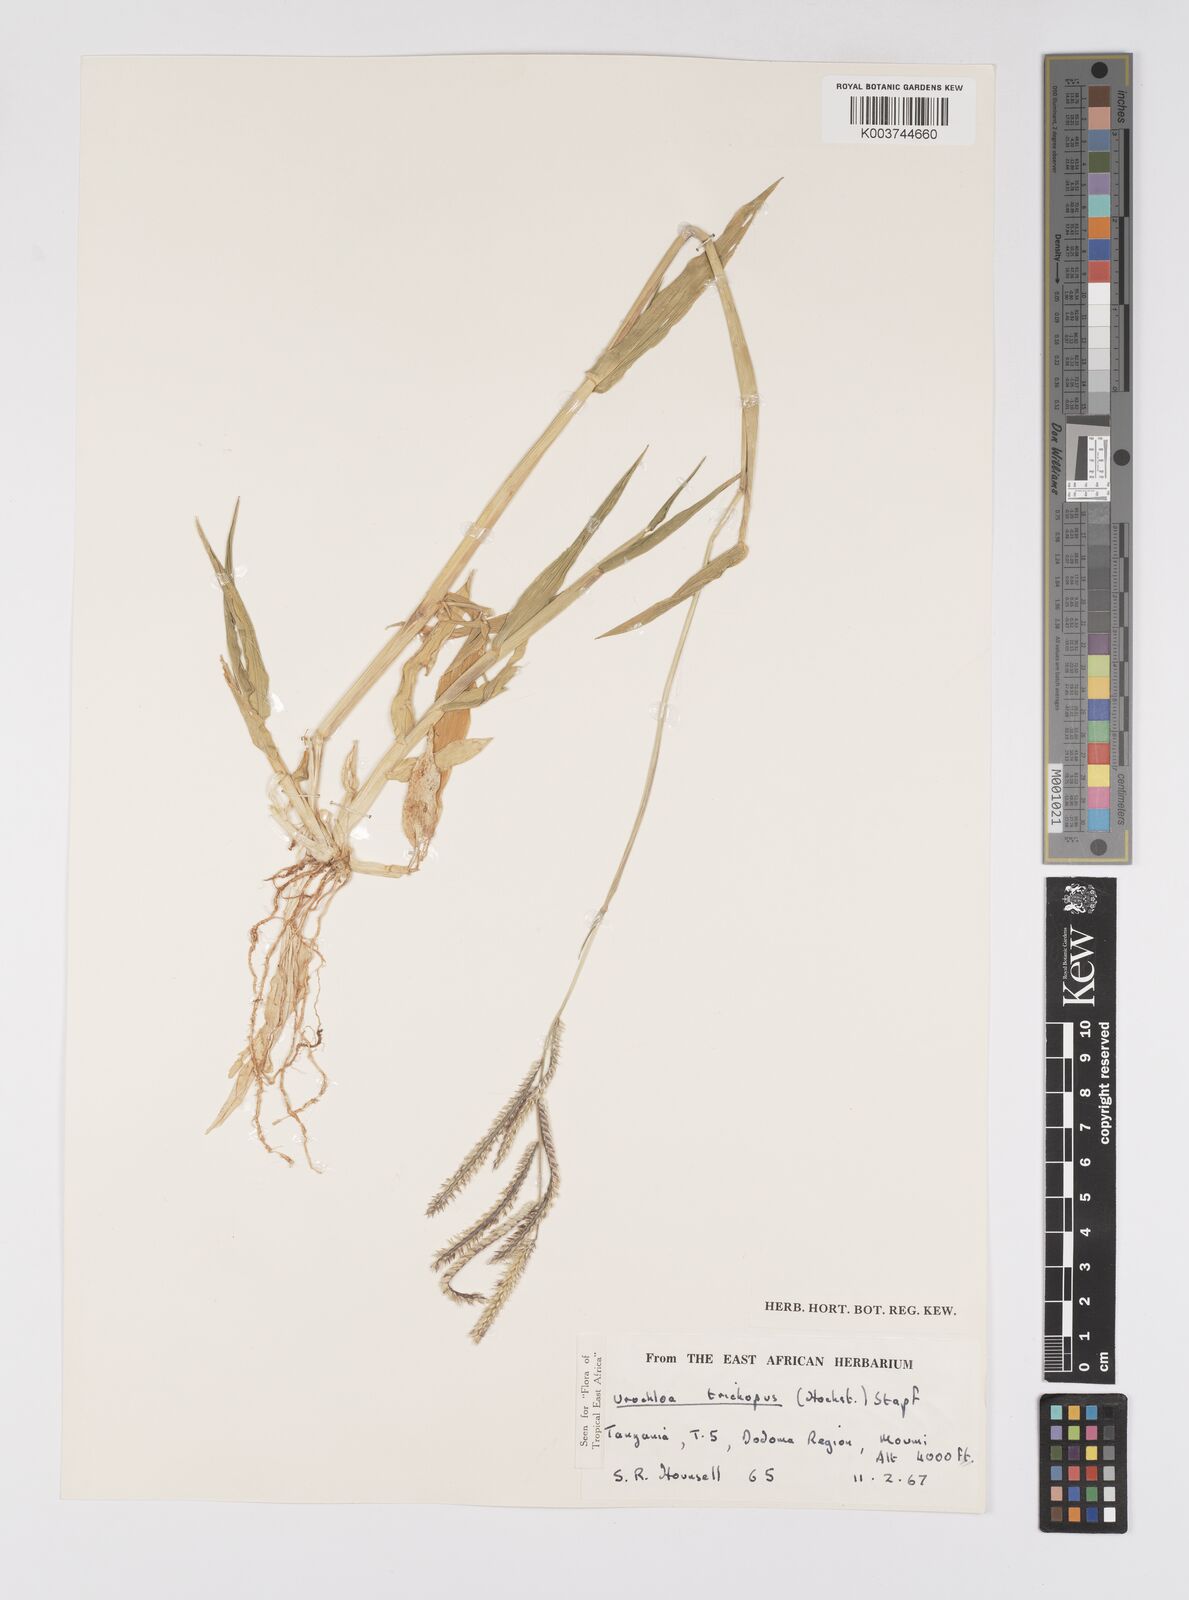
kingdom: Plantae
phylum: Tracheophyta
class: Liliopsida
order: Poales
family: Poaceae
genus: Urochloa
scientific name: Urochloa trichopus
